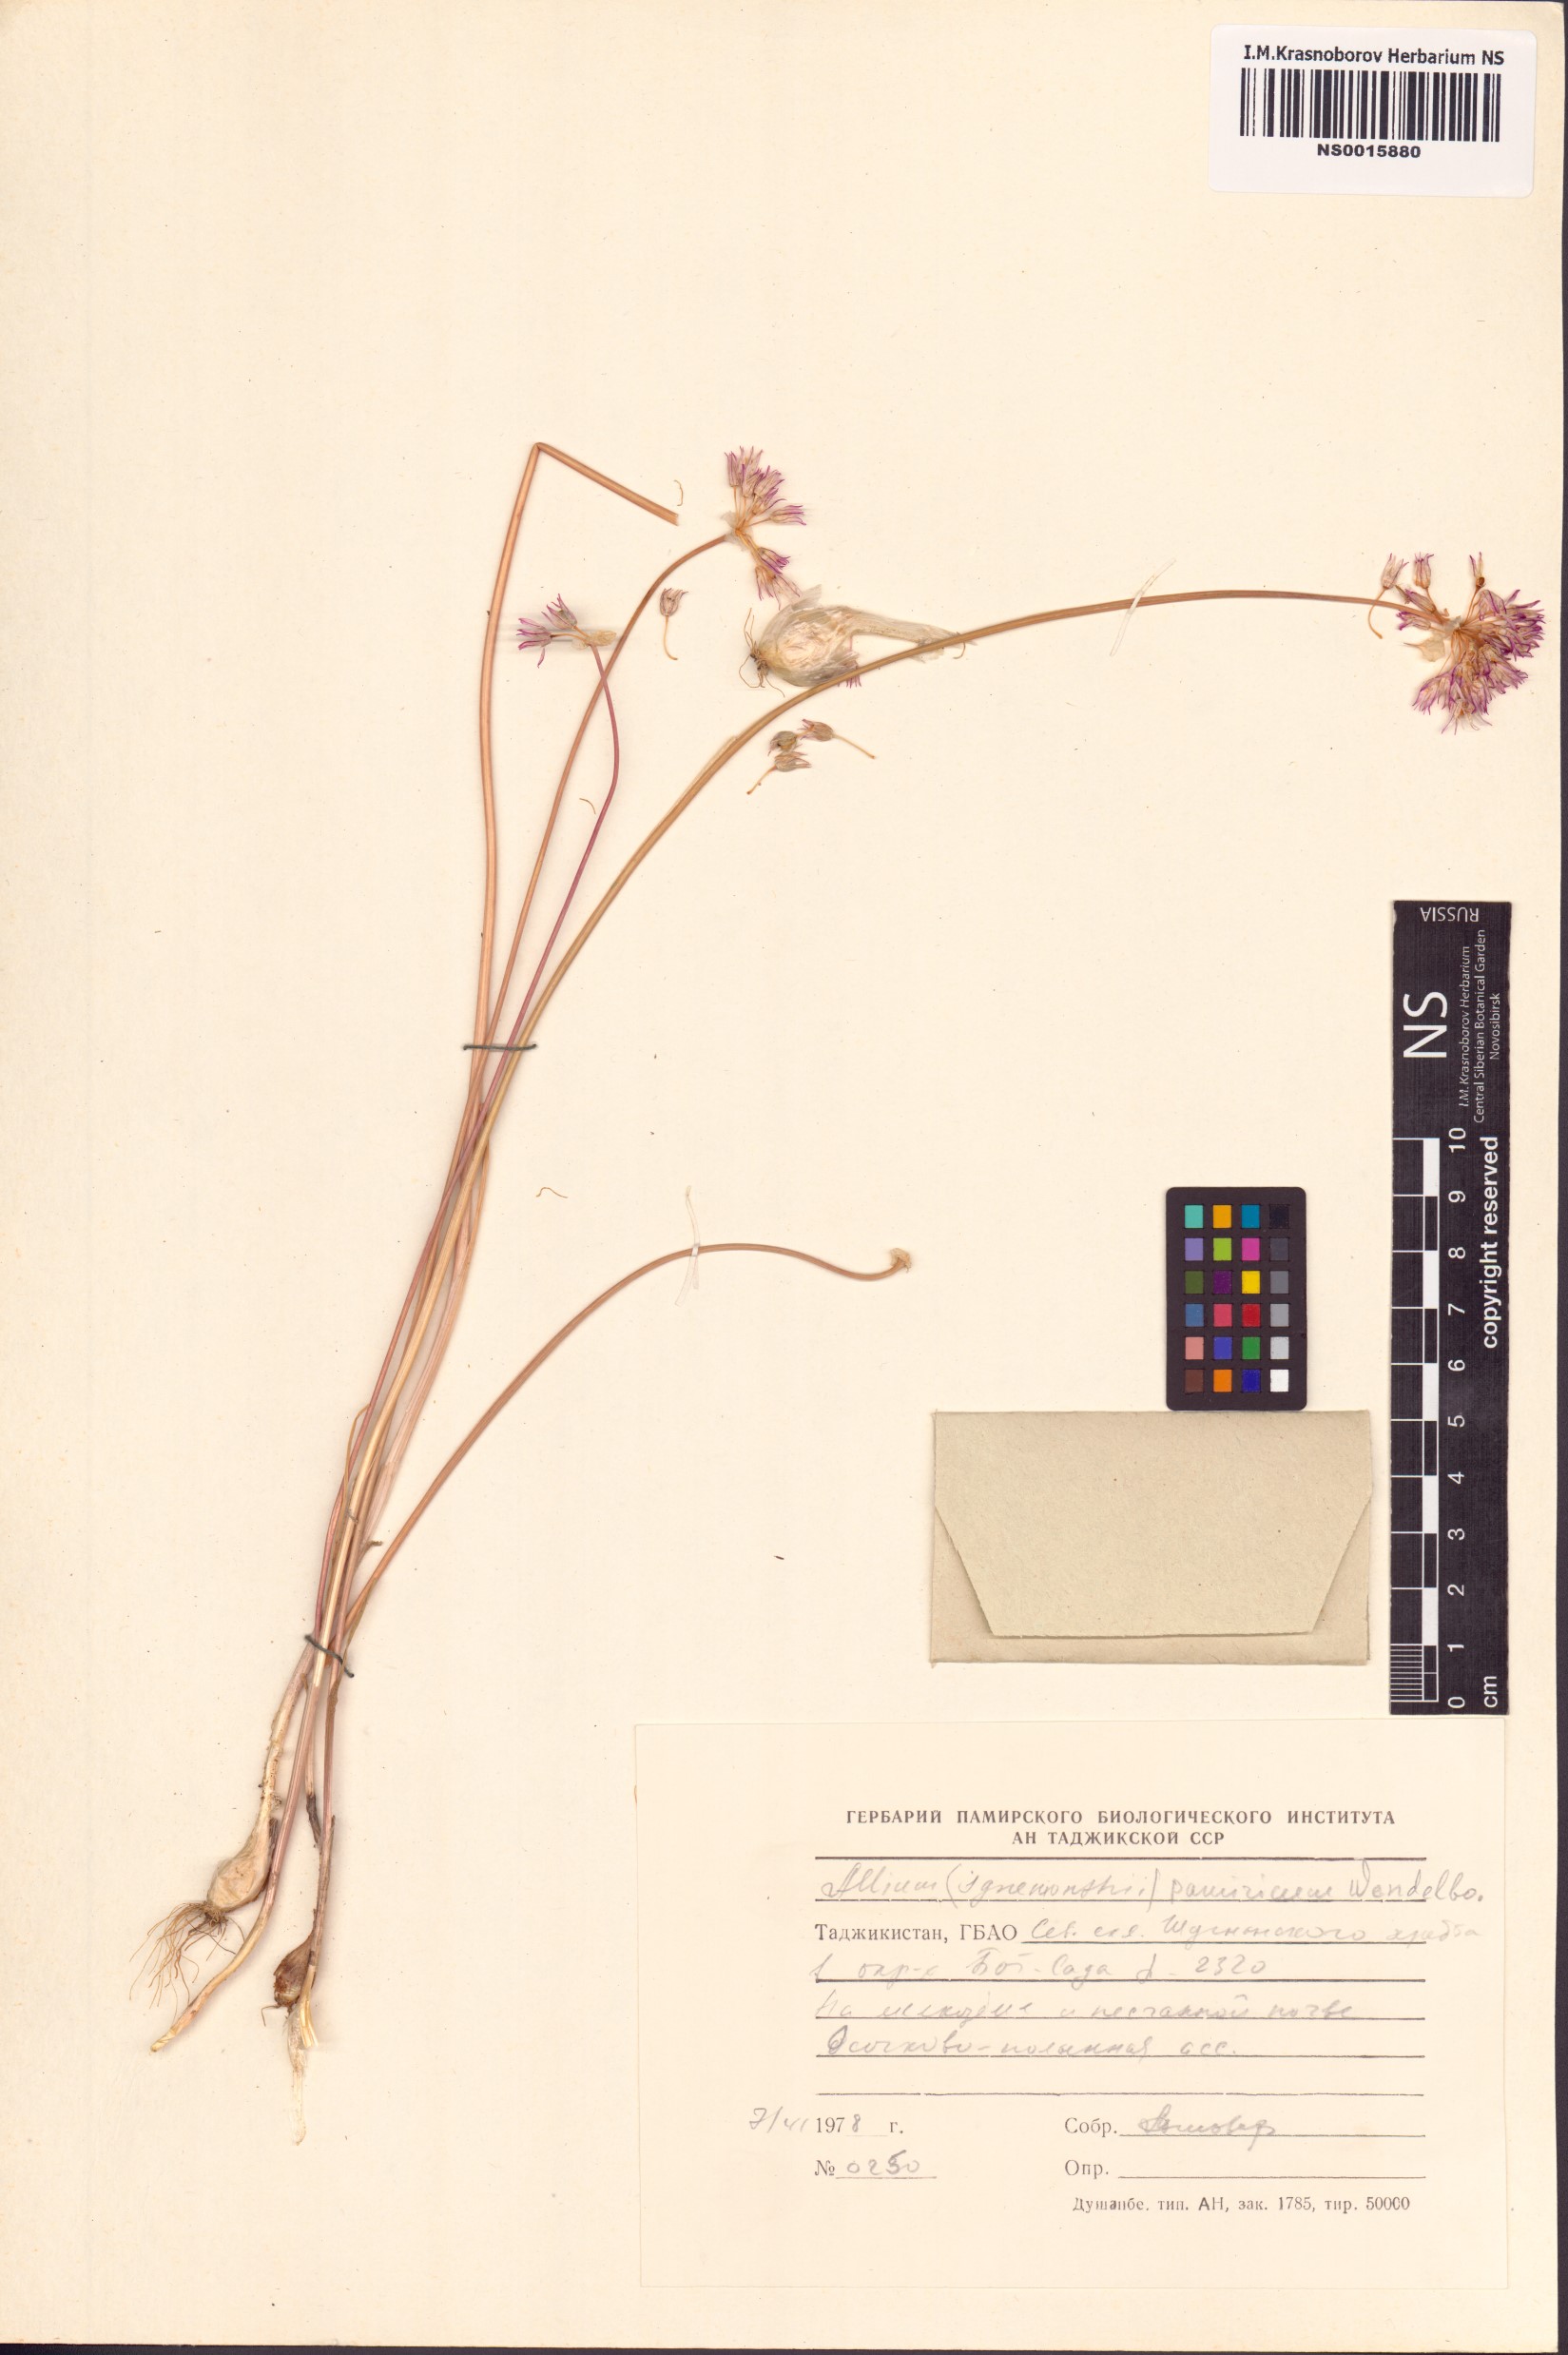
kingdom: Plantae
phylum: Tracheophyta
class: Liliopsida
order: Asparagales
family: Amaryllidaceae
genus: Allium
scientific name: Allium pamiricum
